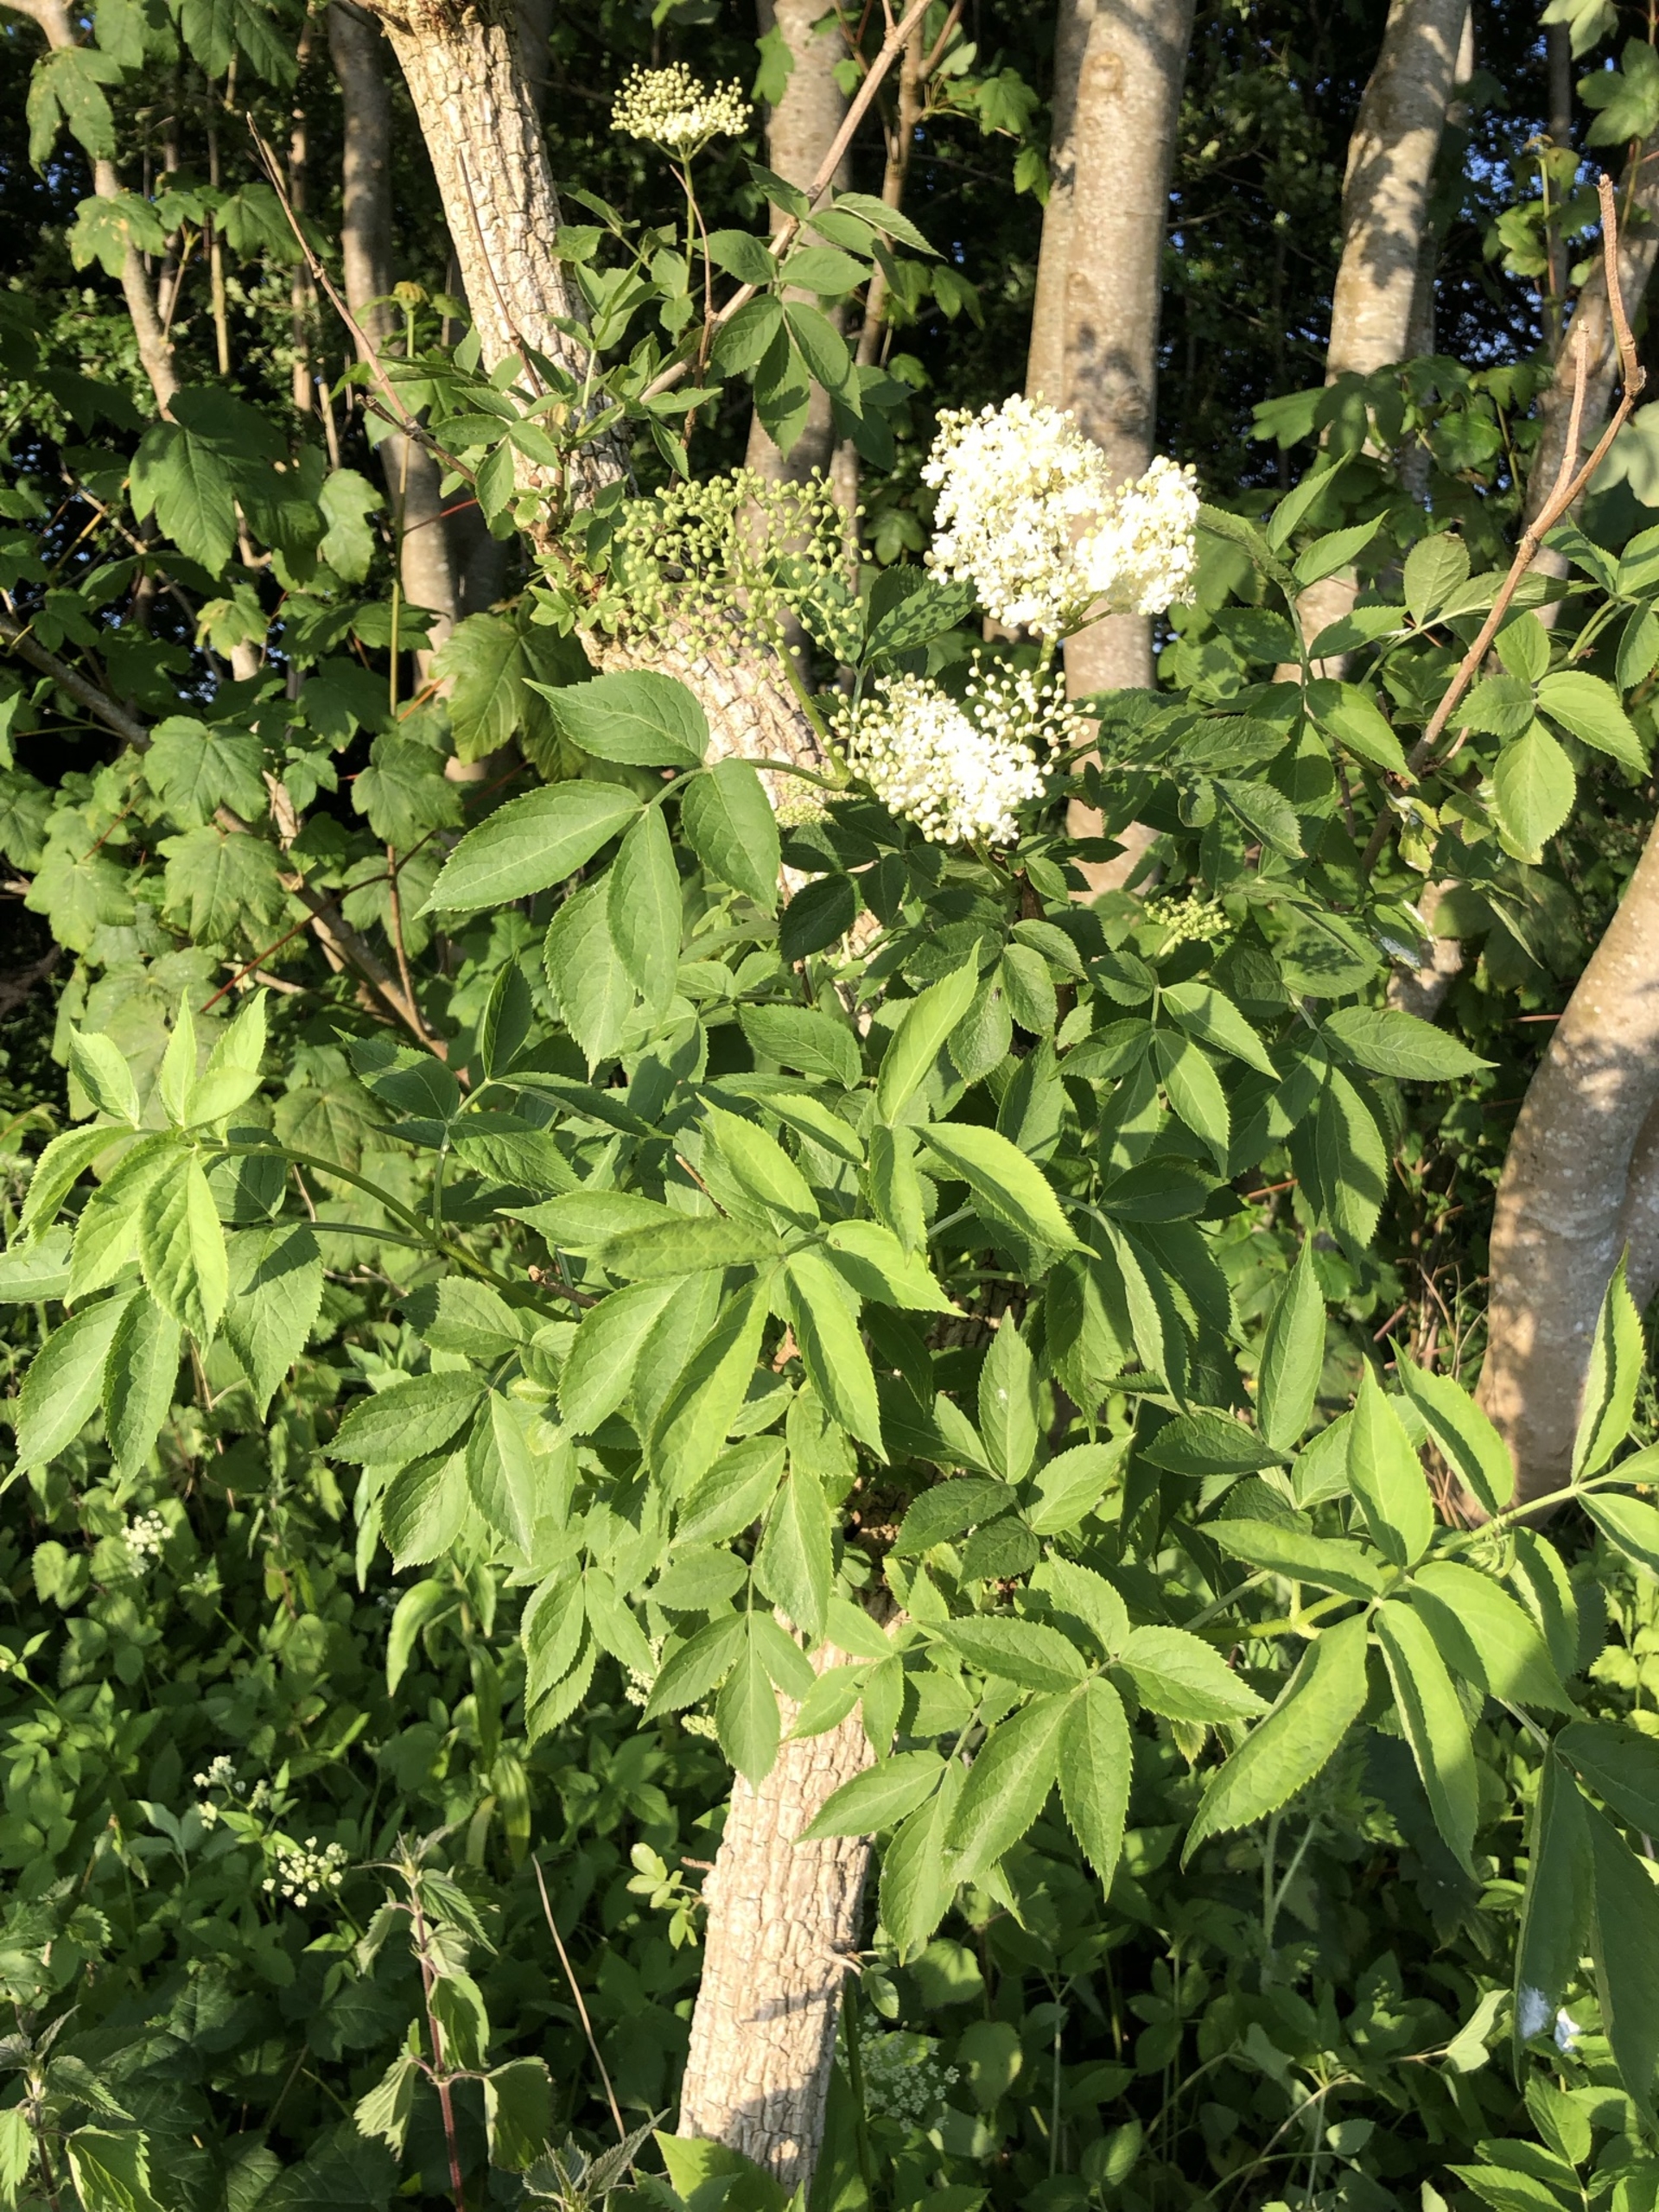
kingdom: Plantae
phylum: Tracheophyta
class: Magnoliopsida
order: Dipsacales
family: Viburnaceae
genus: Sambucus
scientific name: Sambucus nigra
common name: Almindelig hyld
